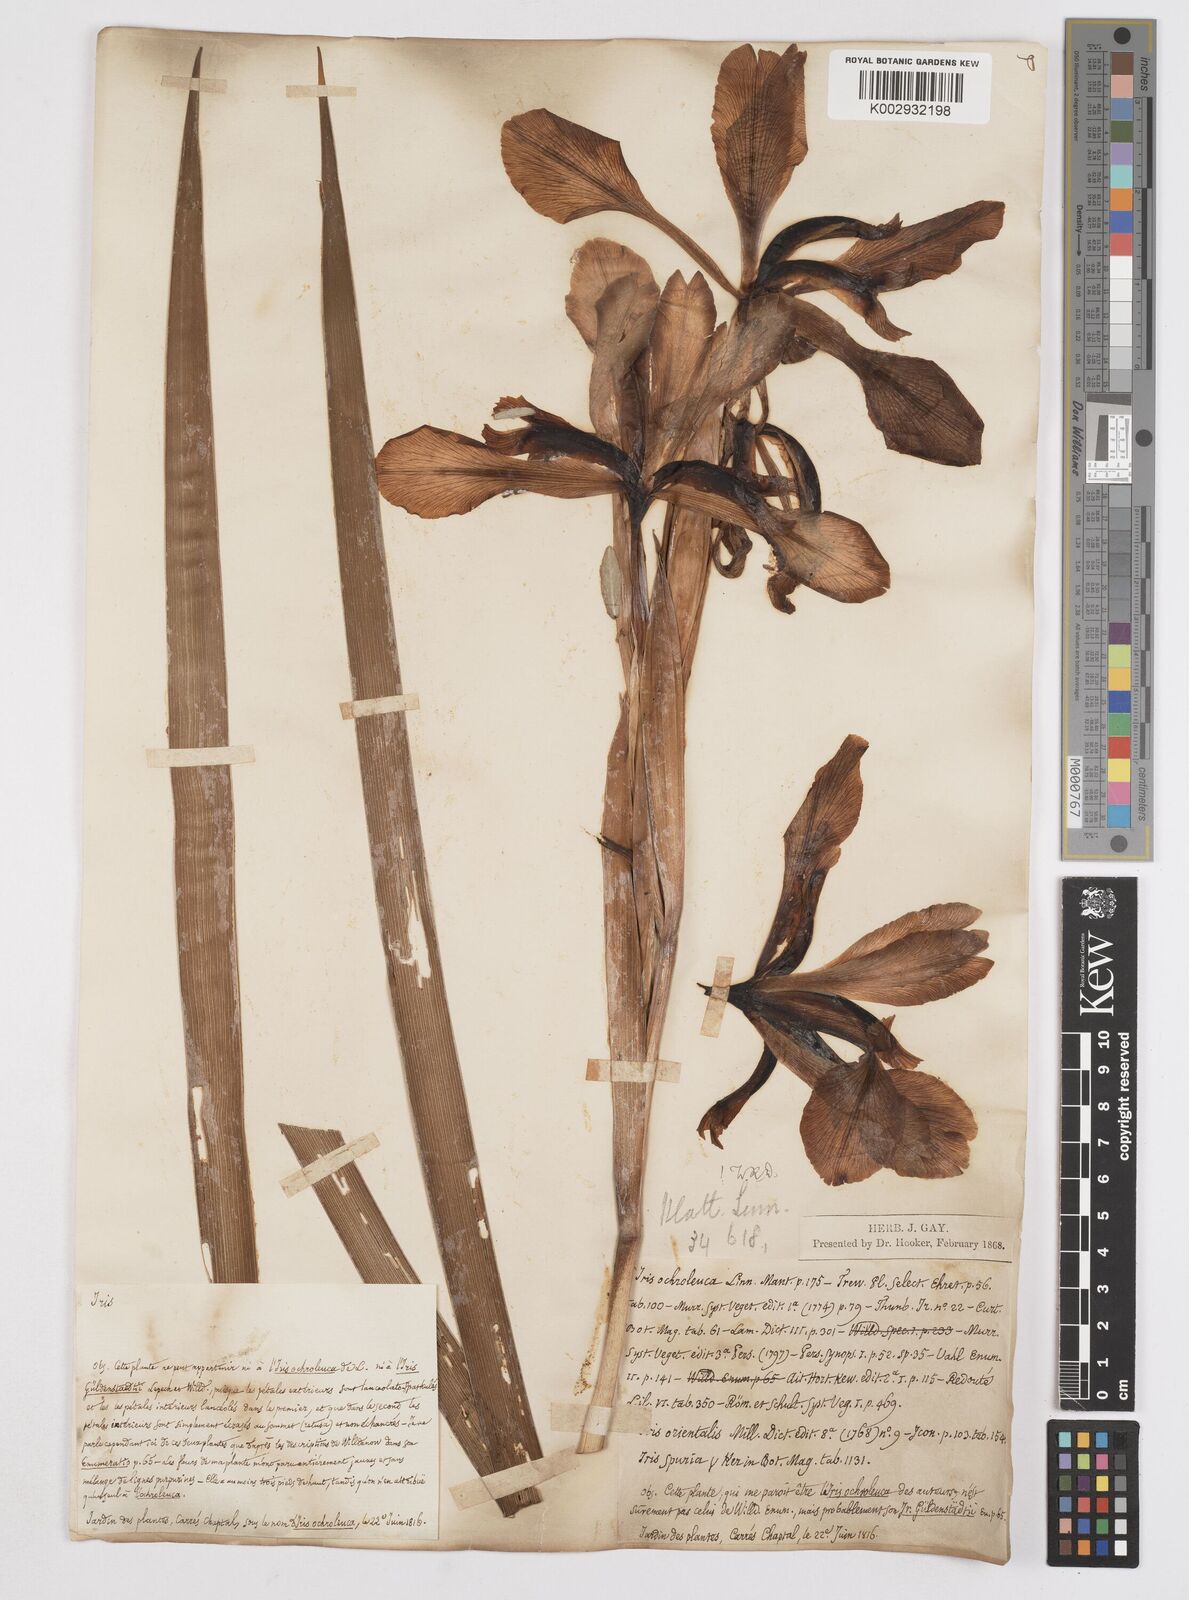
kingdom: Plantae
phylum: Tracheophyta
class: Liliopsida
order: Asparagales
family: Iridaceae
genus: Iris
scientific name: Iris orientalis
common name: Turkish iris
